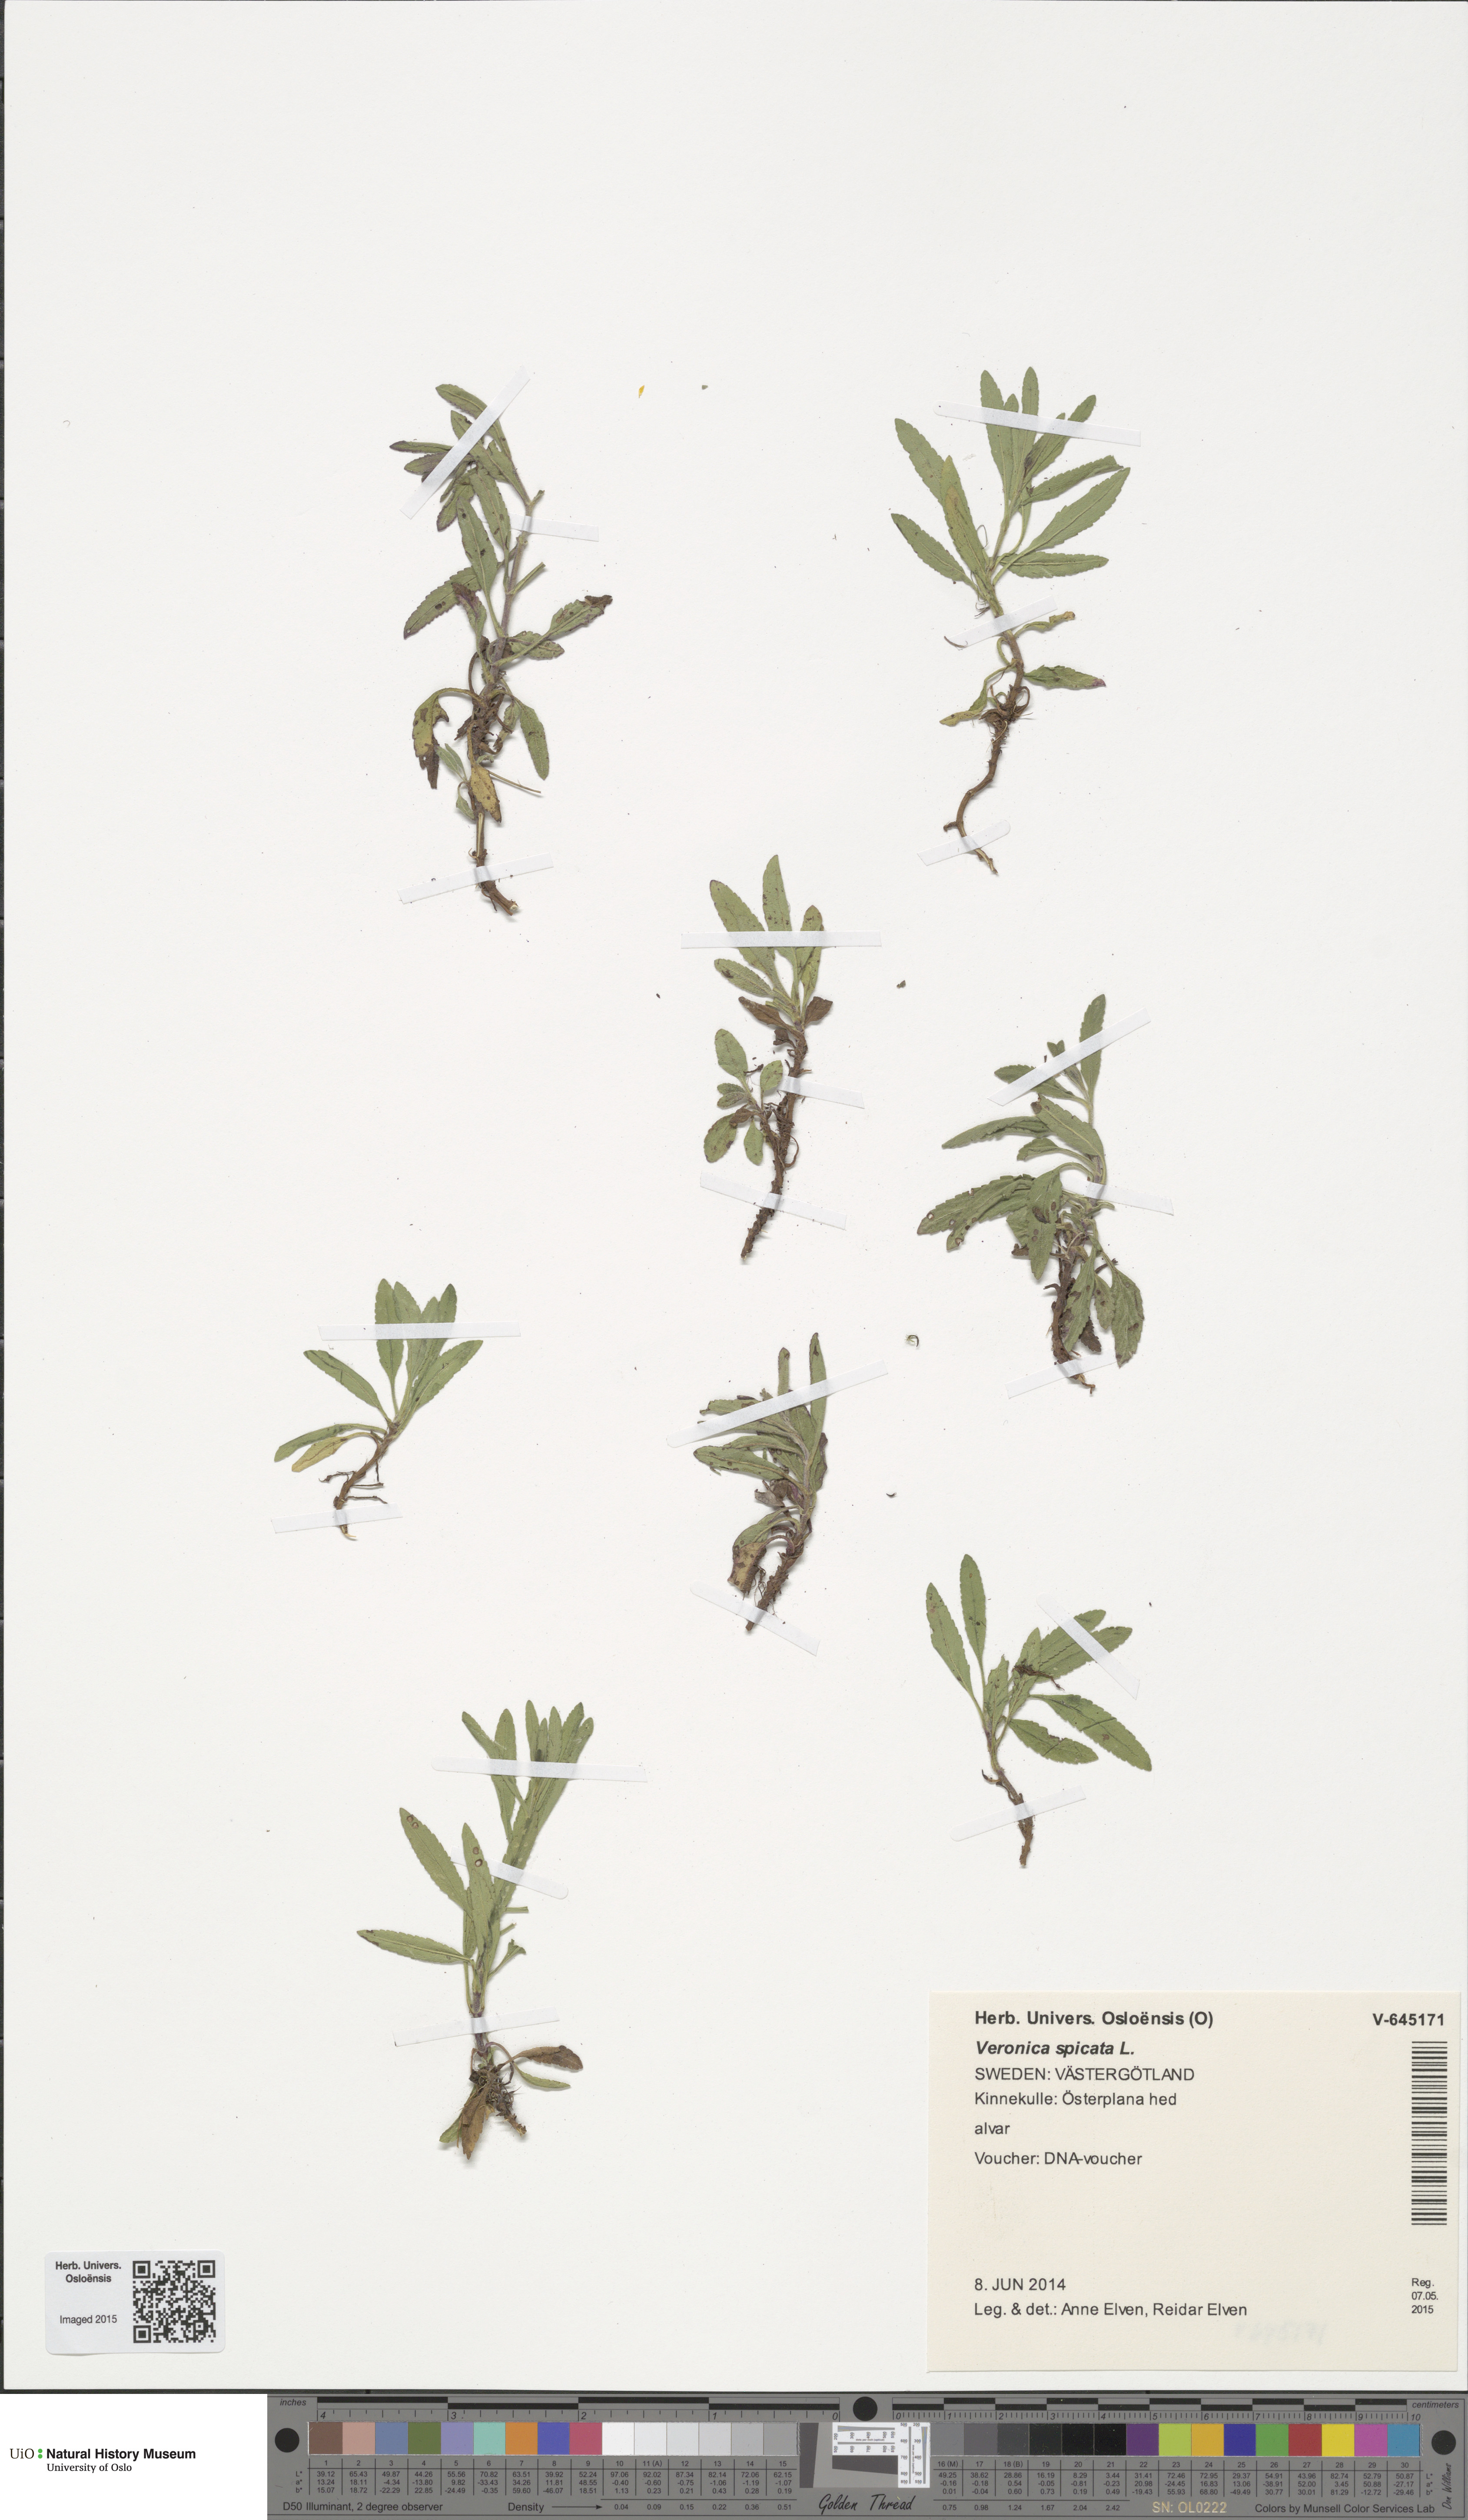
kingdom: Plantae
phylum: Tracheophyta
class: Magnoliopsida
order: Lamiales
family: Plantaginaceae
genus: Veronica
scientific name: Veronica spicata
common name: Spiked speedwell
